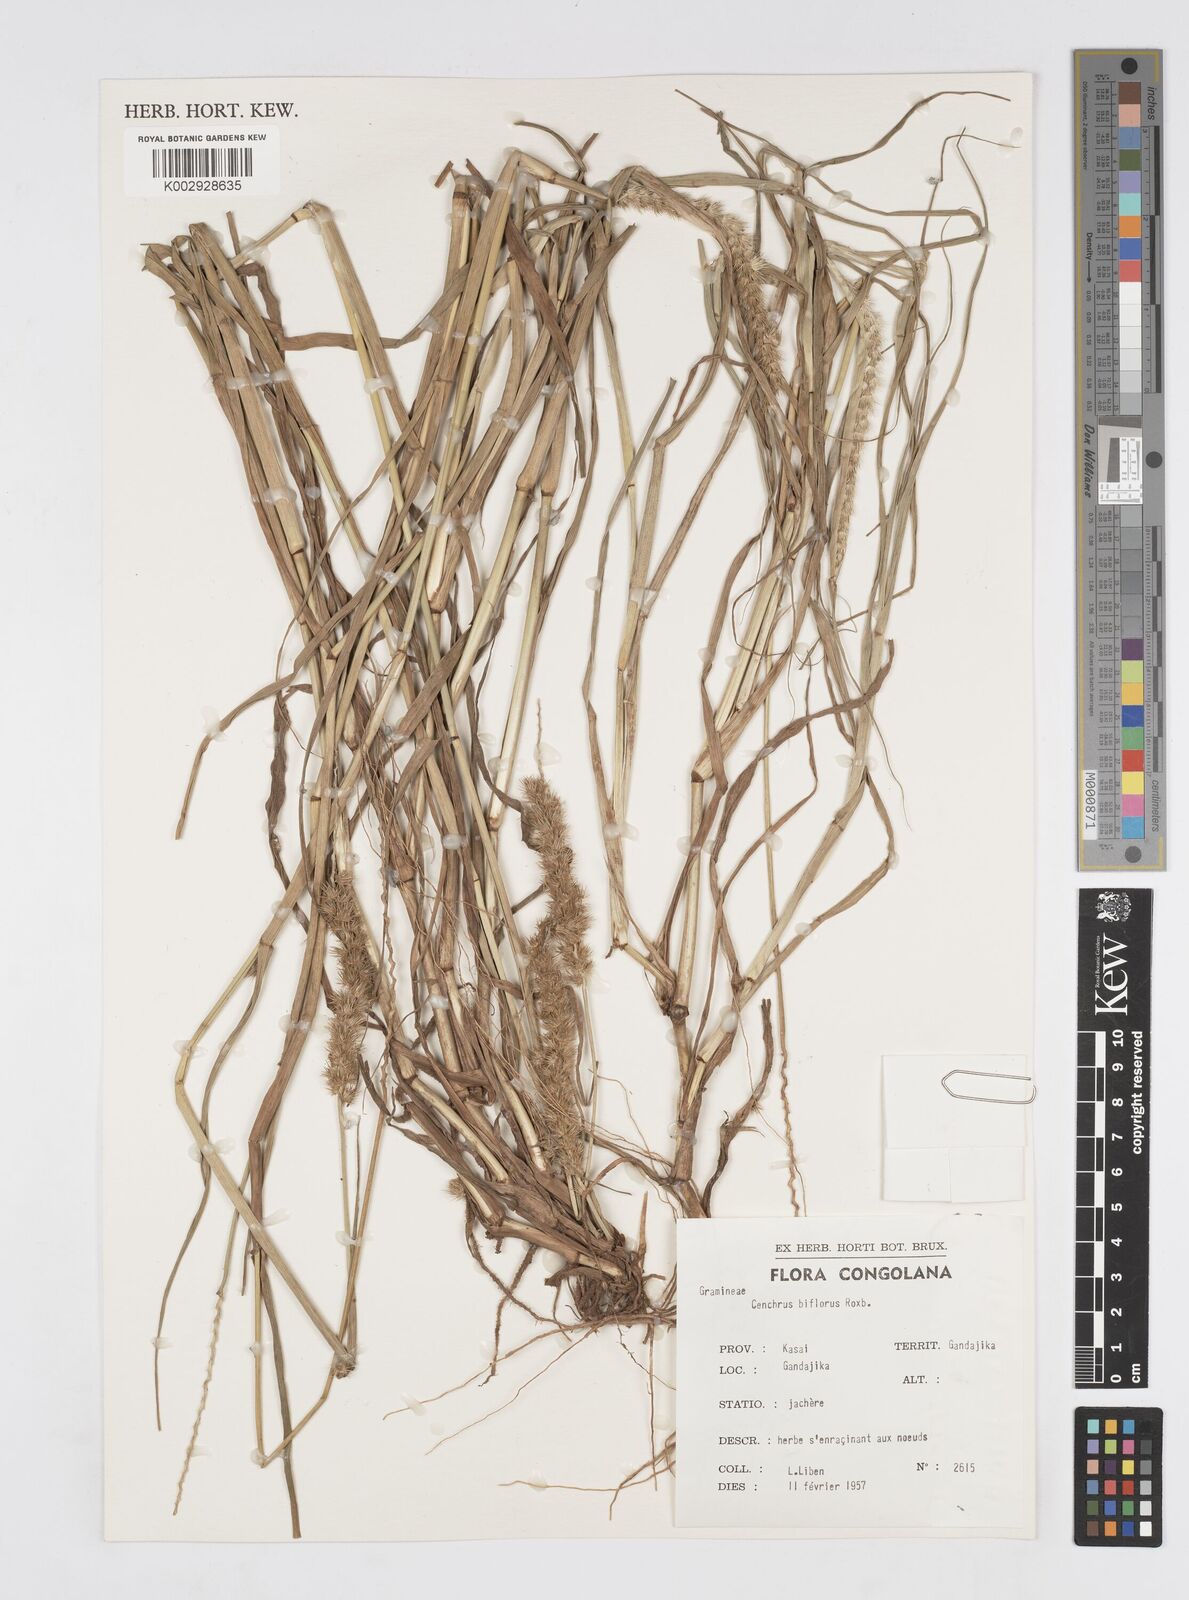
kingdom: Plantae
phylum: Tracheophyta
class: Liliopsida
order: Poales
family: Poaceae
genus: Cenchrus
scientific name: Cenchrus biflorus
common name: Indian sandbur
